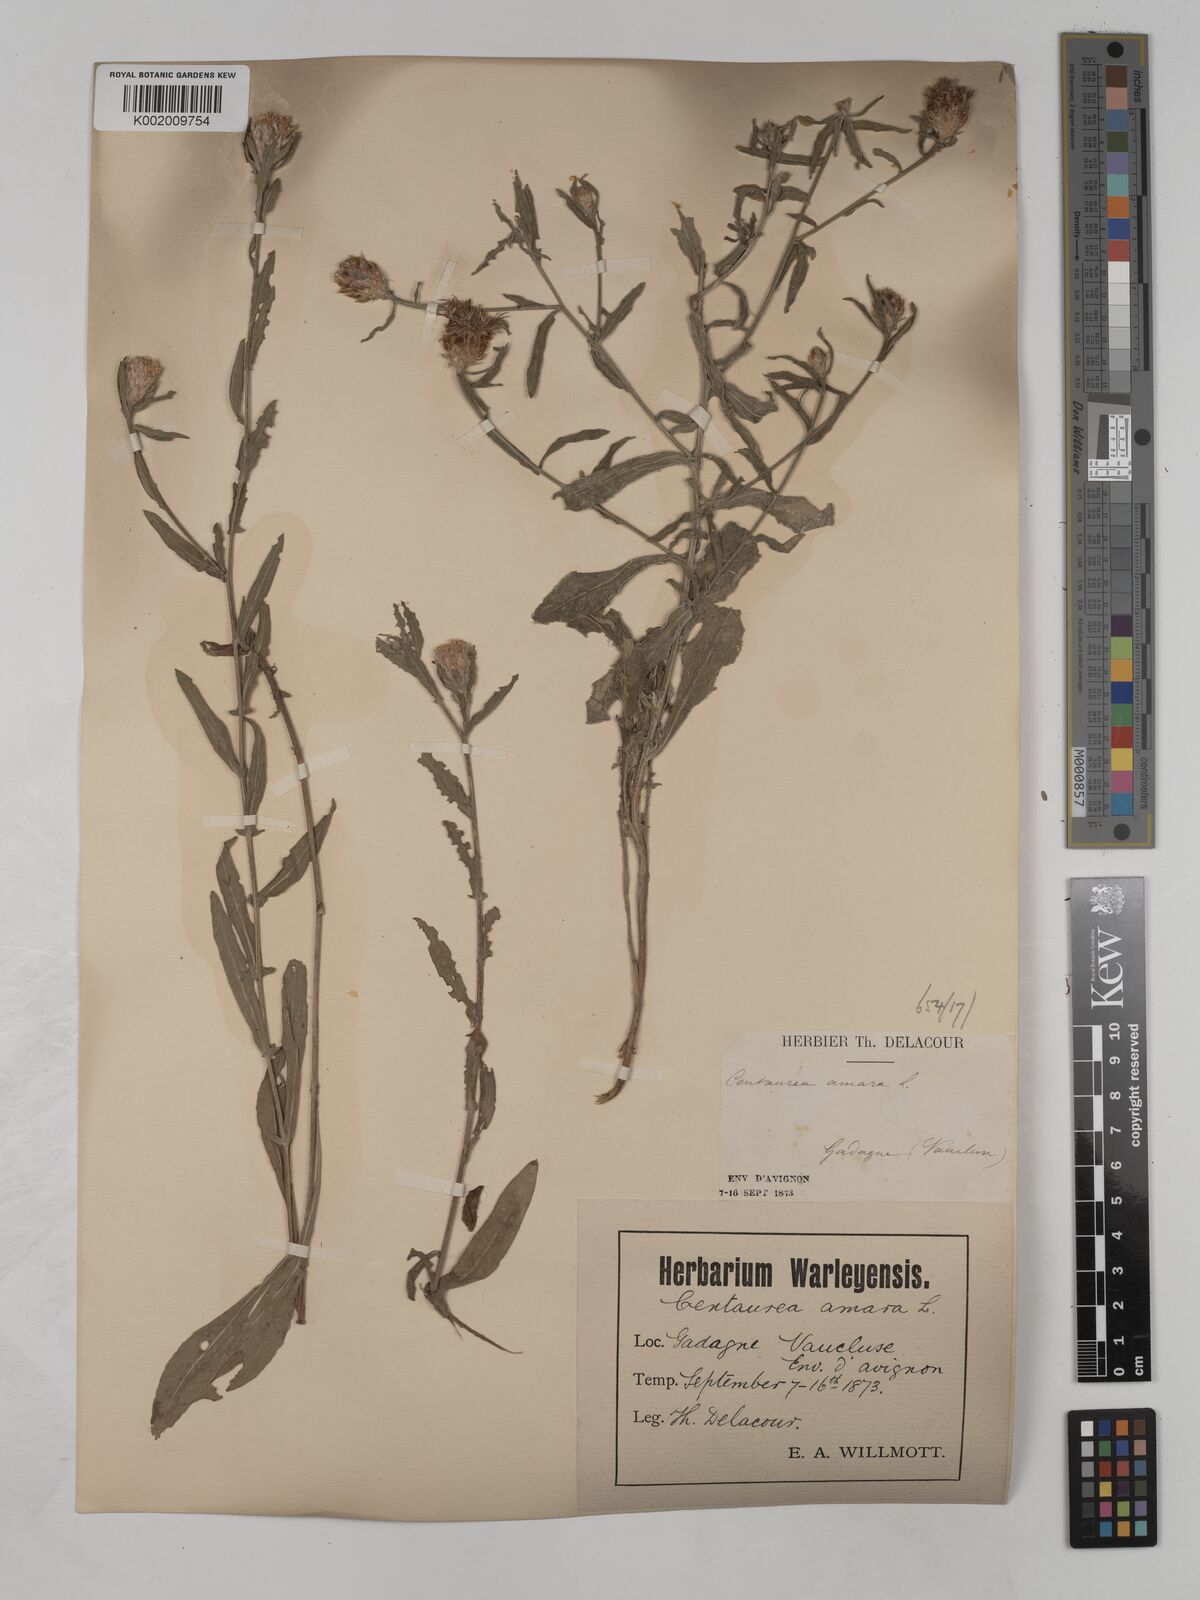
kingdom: Plantae
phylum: Tracheophyta
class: Magnoliopsida
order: Asterales
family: Asteraceae
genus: Centaurea
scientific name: Centaurea timbalii
